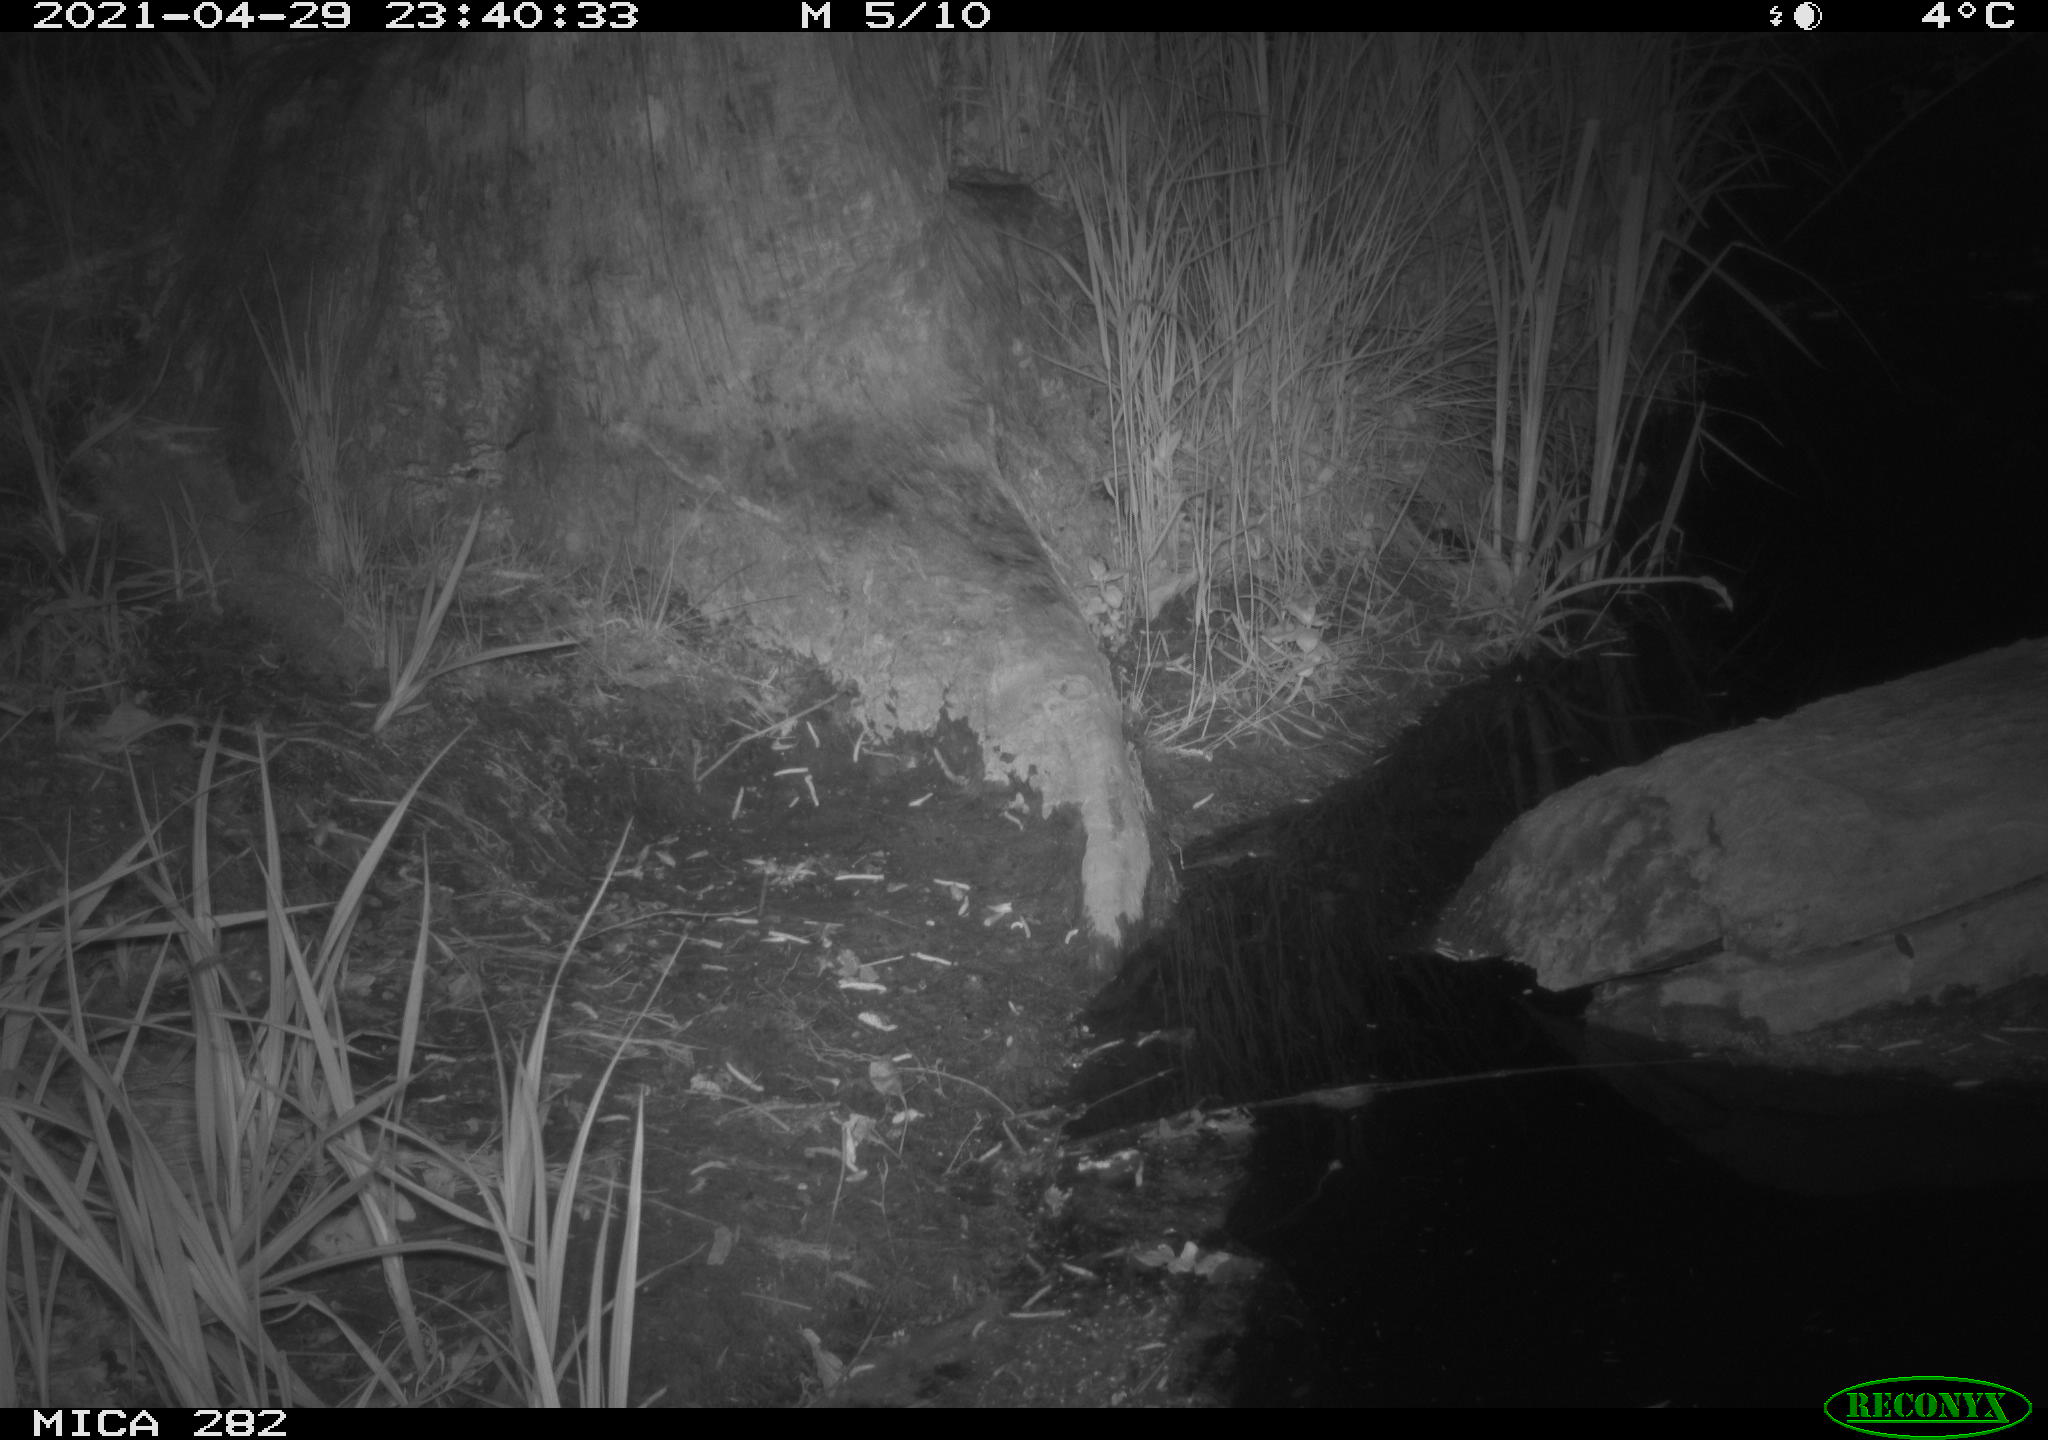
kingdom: Animalia
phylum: Chordata
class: Mammalia
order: Carnivora
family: Mustelidae
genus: Mustela
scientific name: Mustela putorius
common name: European polecat
